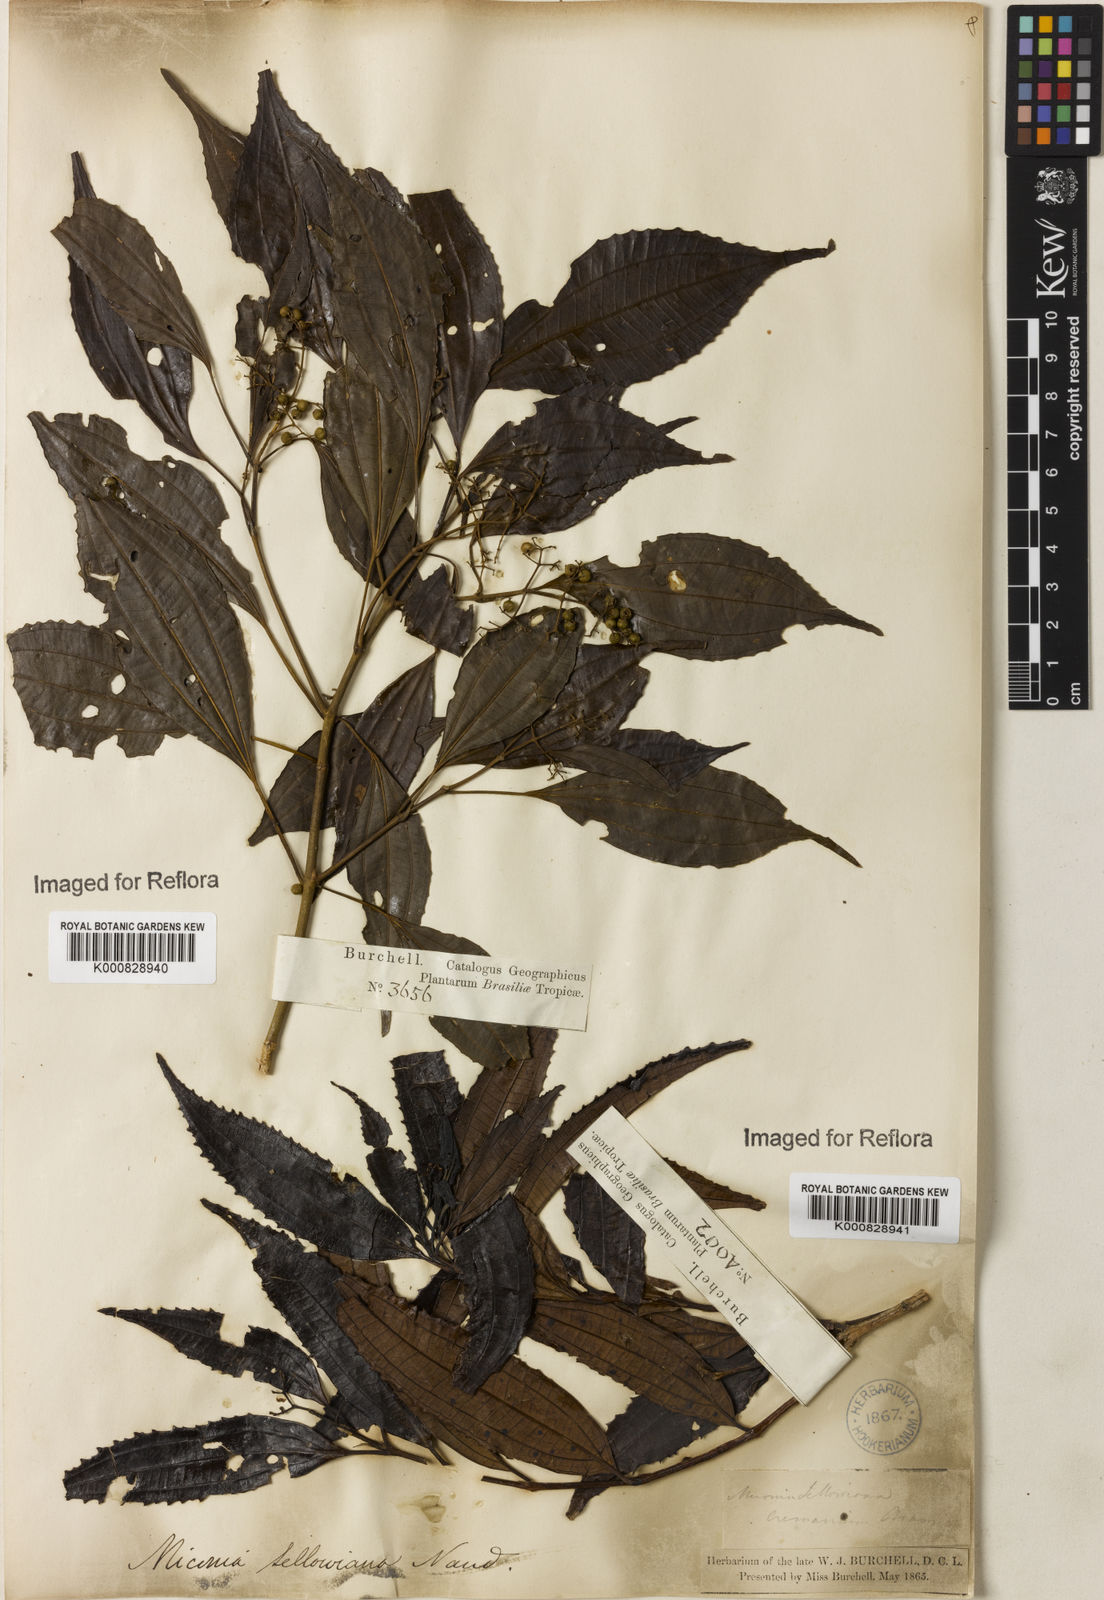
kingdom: Plantae
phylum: Tracheophyta
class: Magnoliopsida
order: Myrtales
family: Melastomataceae
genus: Miconia
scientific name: Miconia sellowiana
